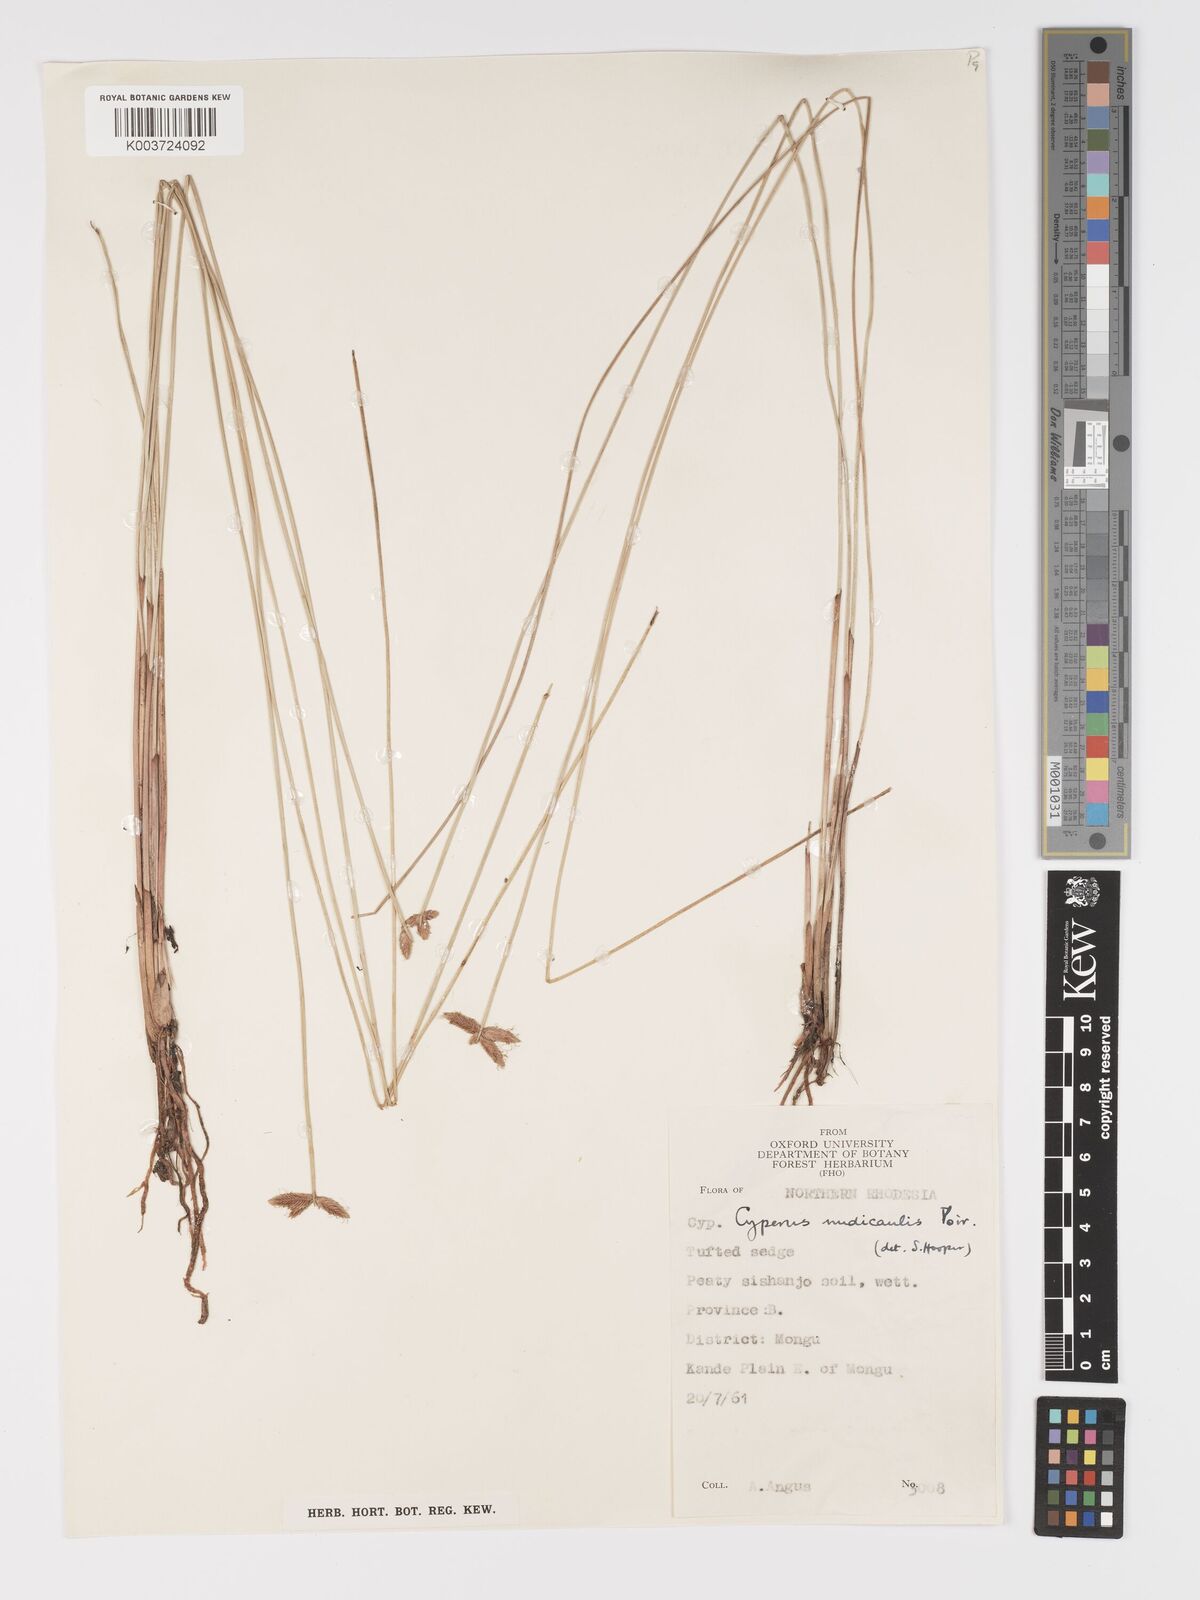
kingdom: Plantae
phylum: Tracheophyta
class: Liliopsida
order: Poales
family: Cyperaceae
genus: Cyperus
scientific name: Cyperus compressus
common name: Poorland flatsedge
